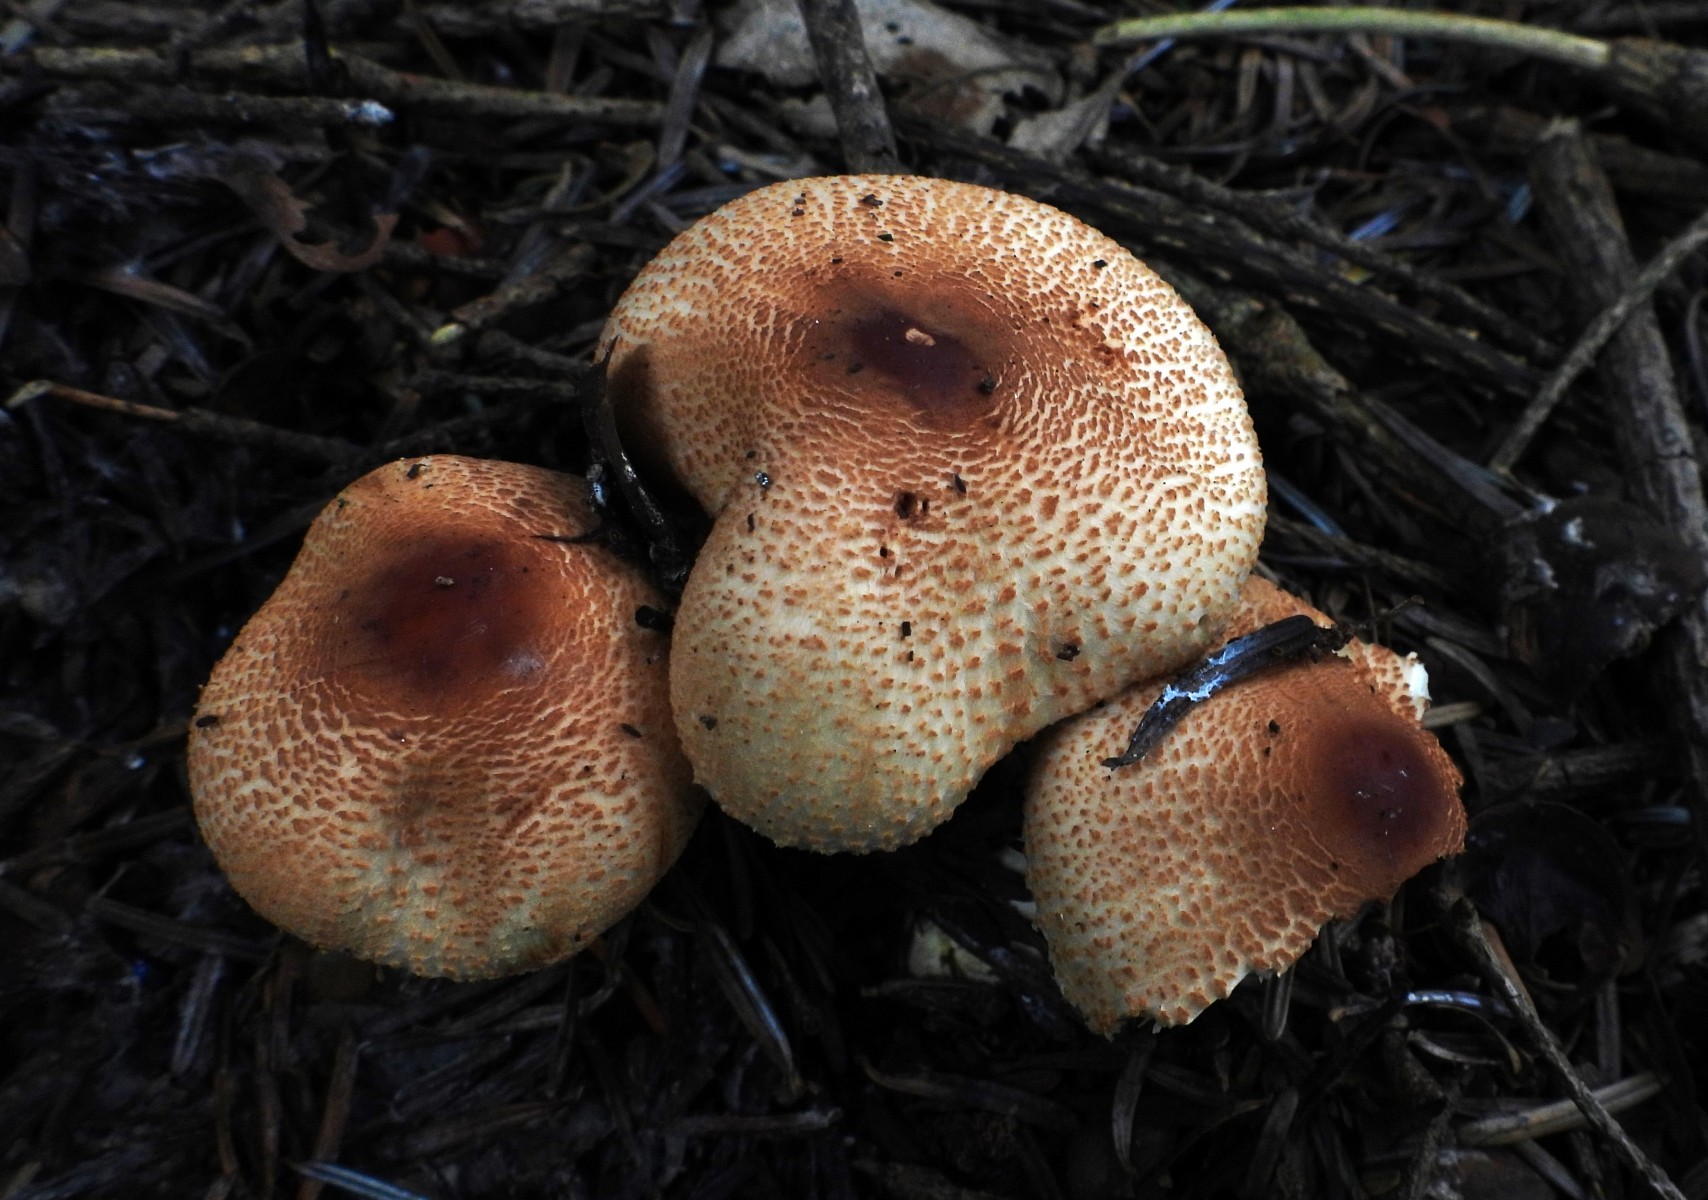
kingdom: Fungi
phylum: Basidiomycota
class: Agaricomycetes
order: Agaricales
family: Agaricaceae
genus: Lepiota
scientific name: Lepiota ochraceofulva
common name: sødtduftende parasolhat
